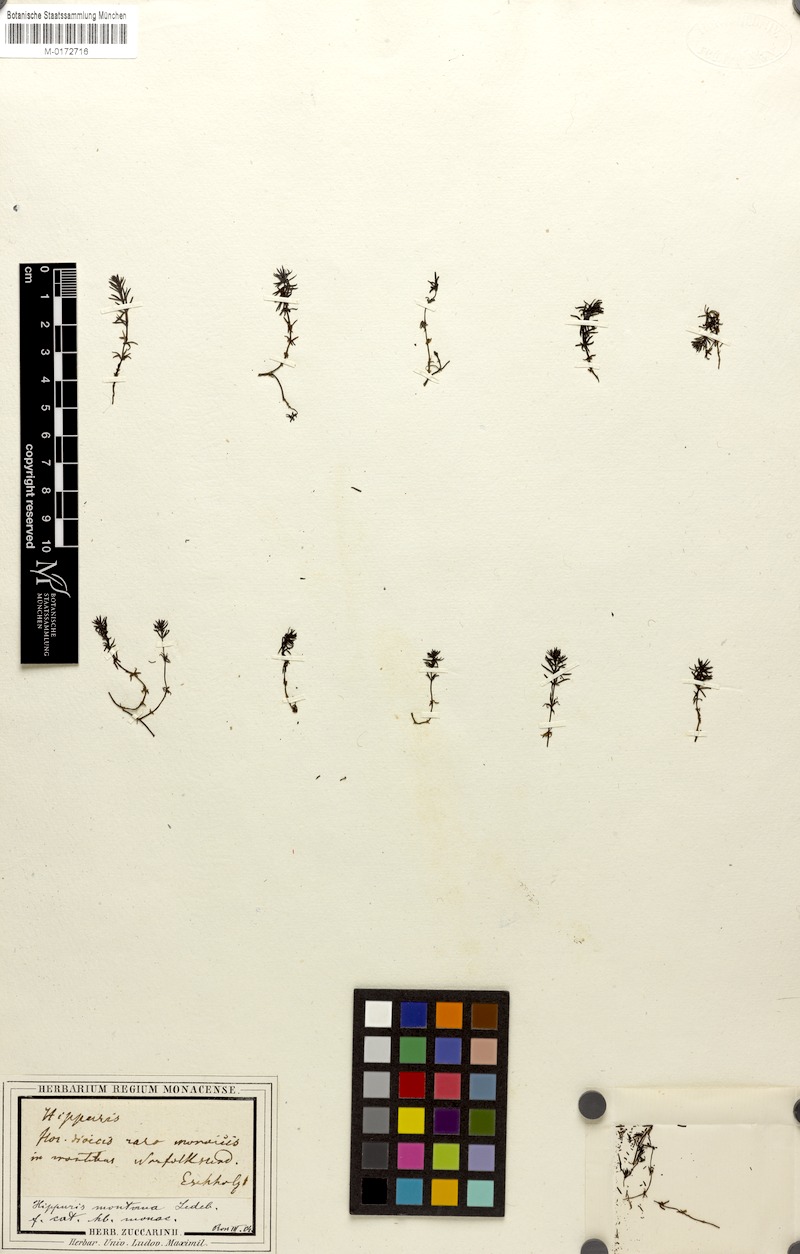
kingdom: Plantae
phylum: Tracheophyta
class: Magnoliopsida
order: Lamiales
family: Plantaginaceae
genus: Hippuris
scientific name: Hippuris montana
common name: Mountain mare's-tail
